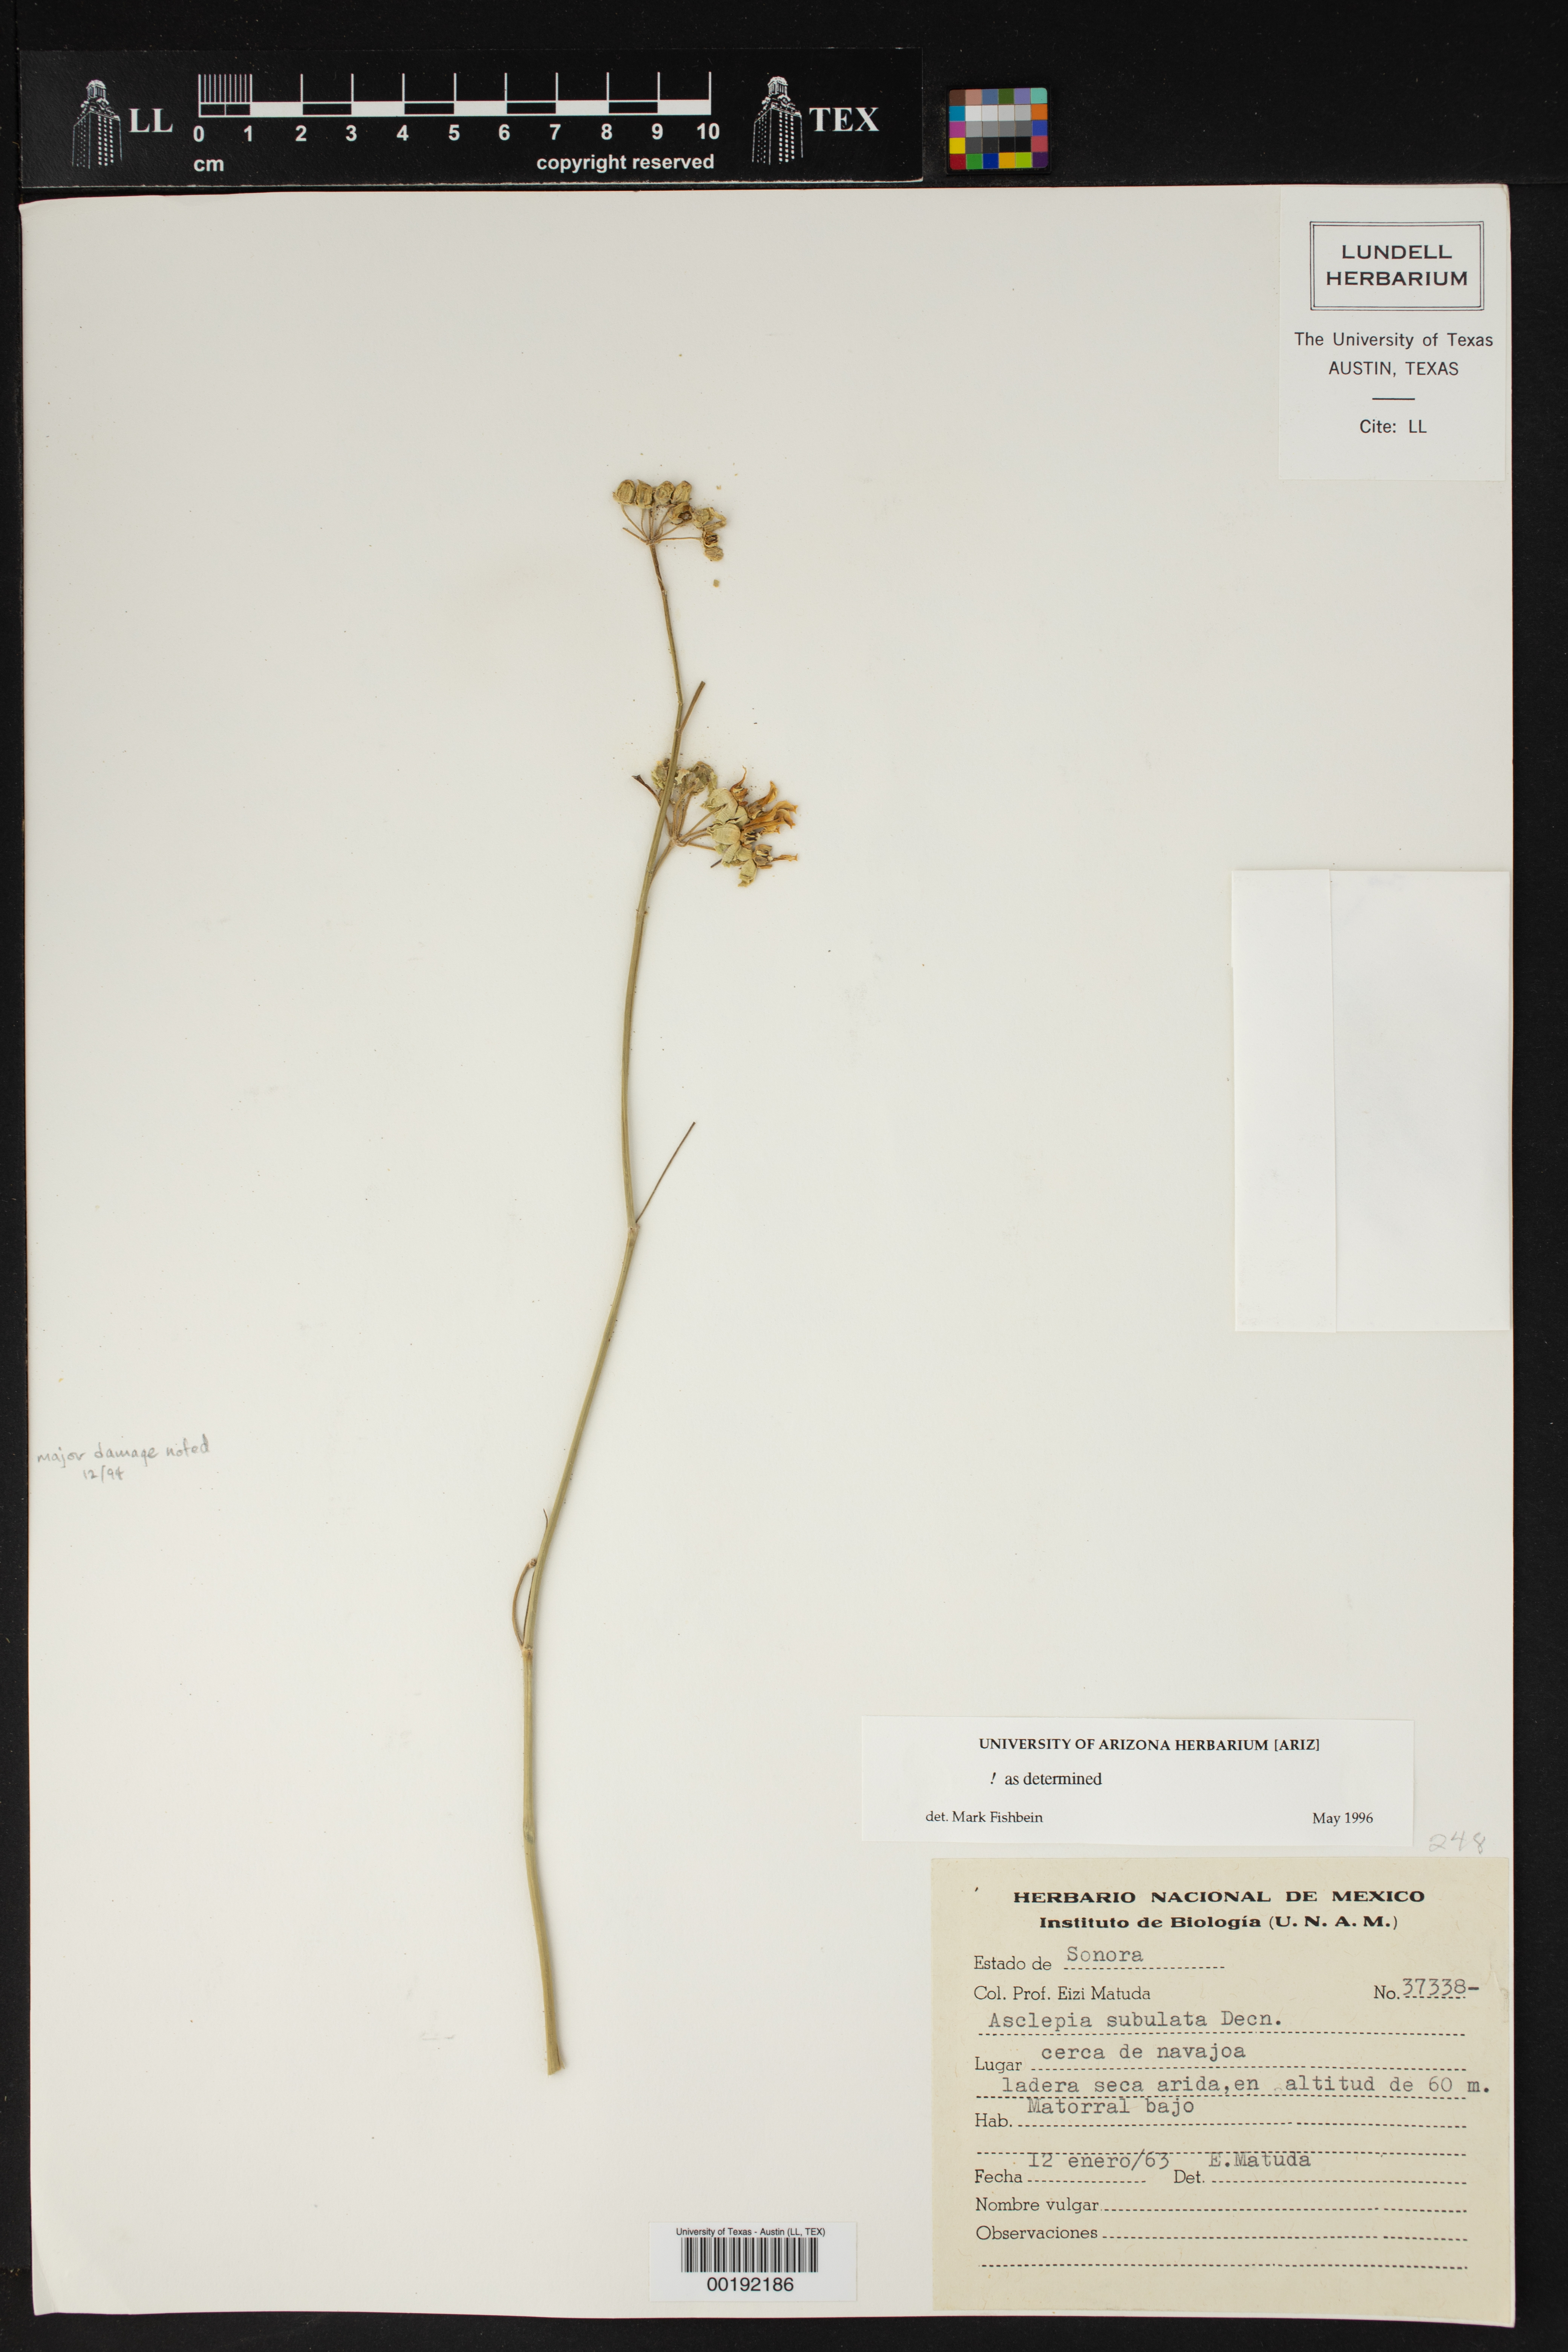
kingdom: Plantae
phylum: Tracheophyta
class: Magnoliopsida
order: Gentianales
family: Apocynaceae
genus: Asclepias
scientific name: Asclepias subulata
